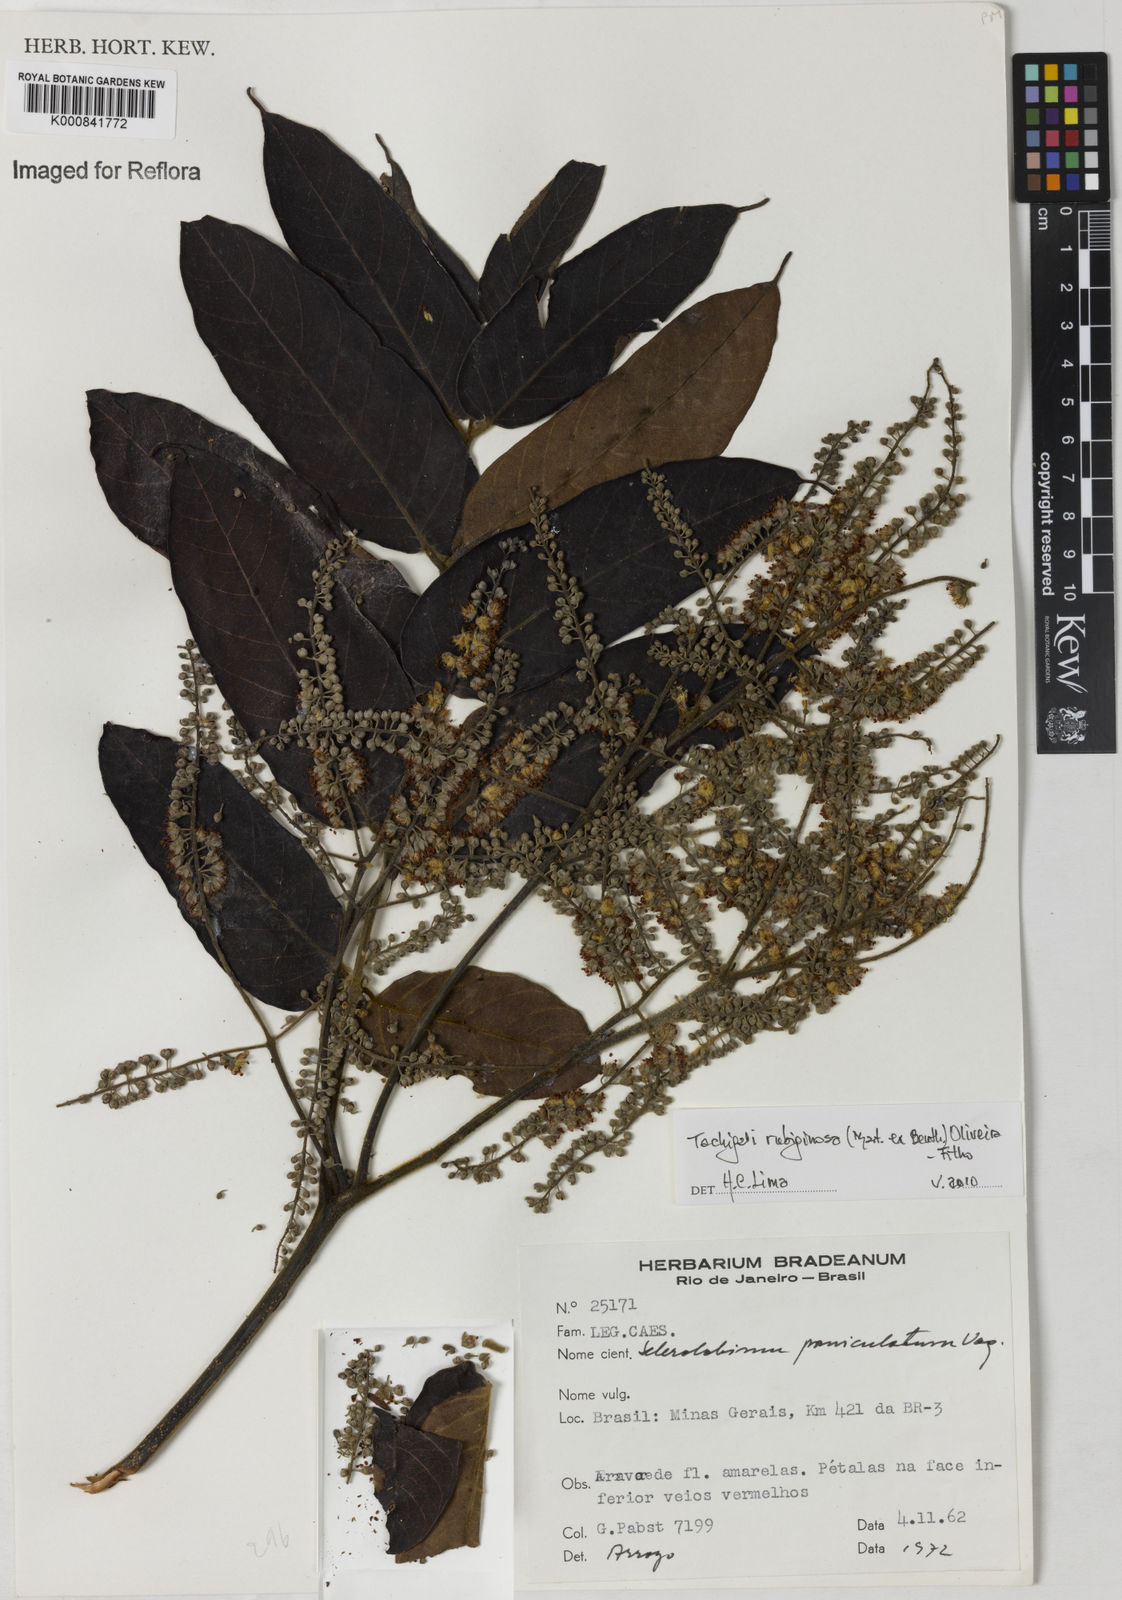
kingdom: Plantae
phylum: Tracheophyta
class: Magnoliopsida
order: Fabales
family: Fabaceae
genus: Tachigali
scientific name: Tachigali rubiginosa
